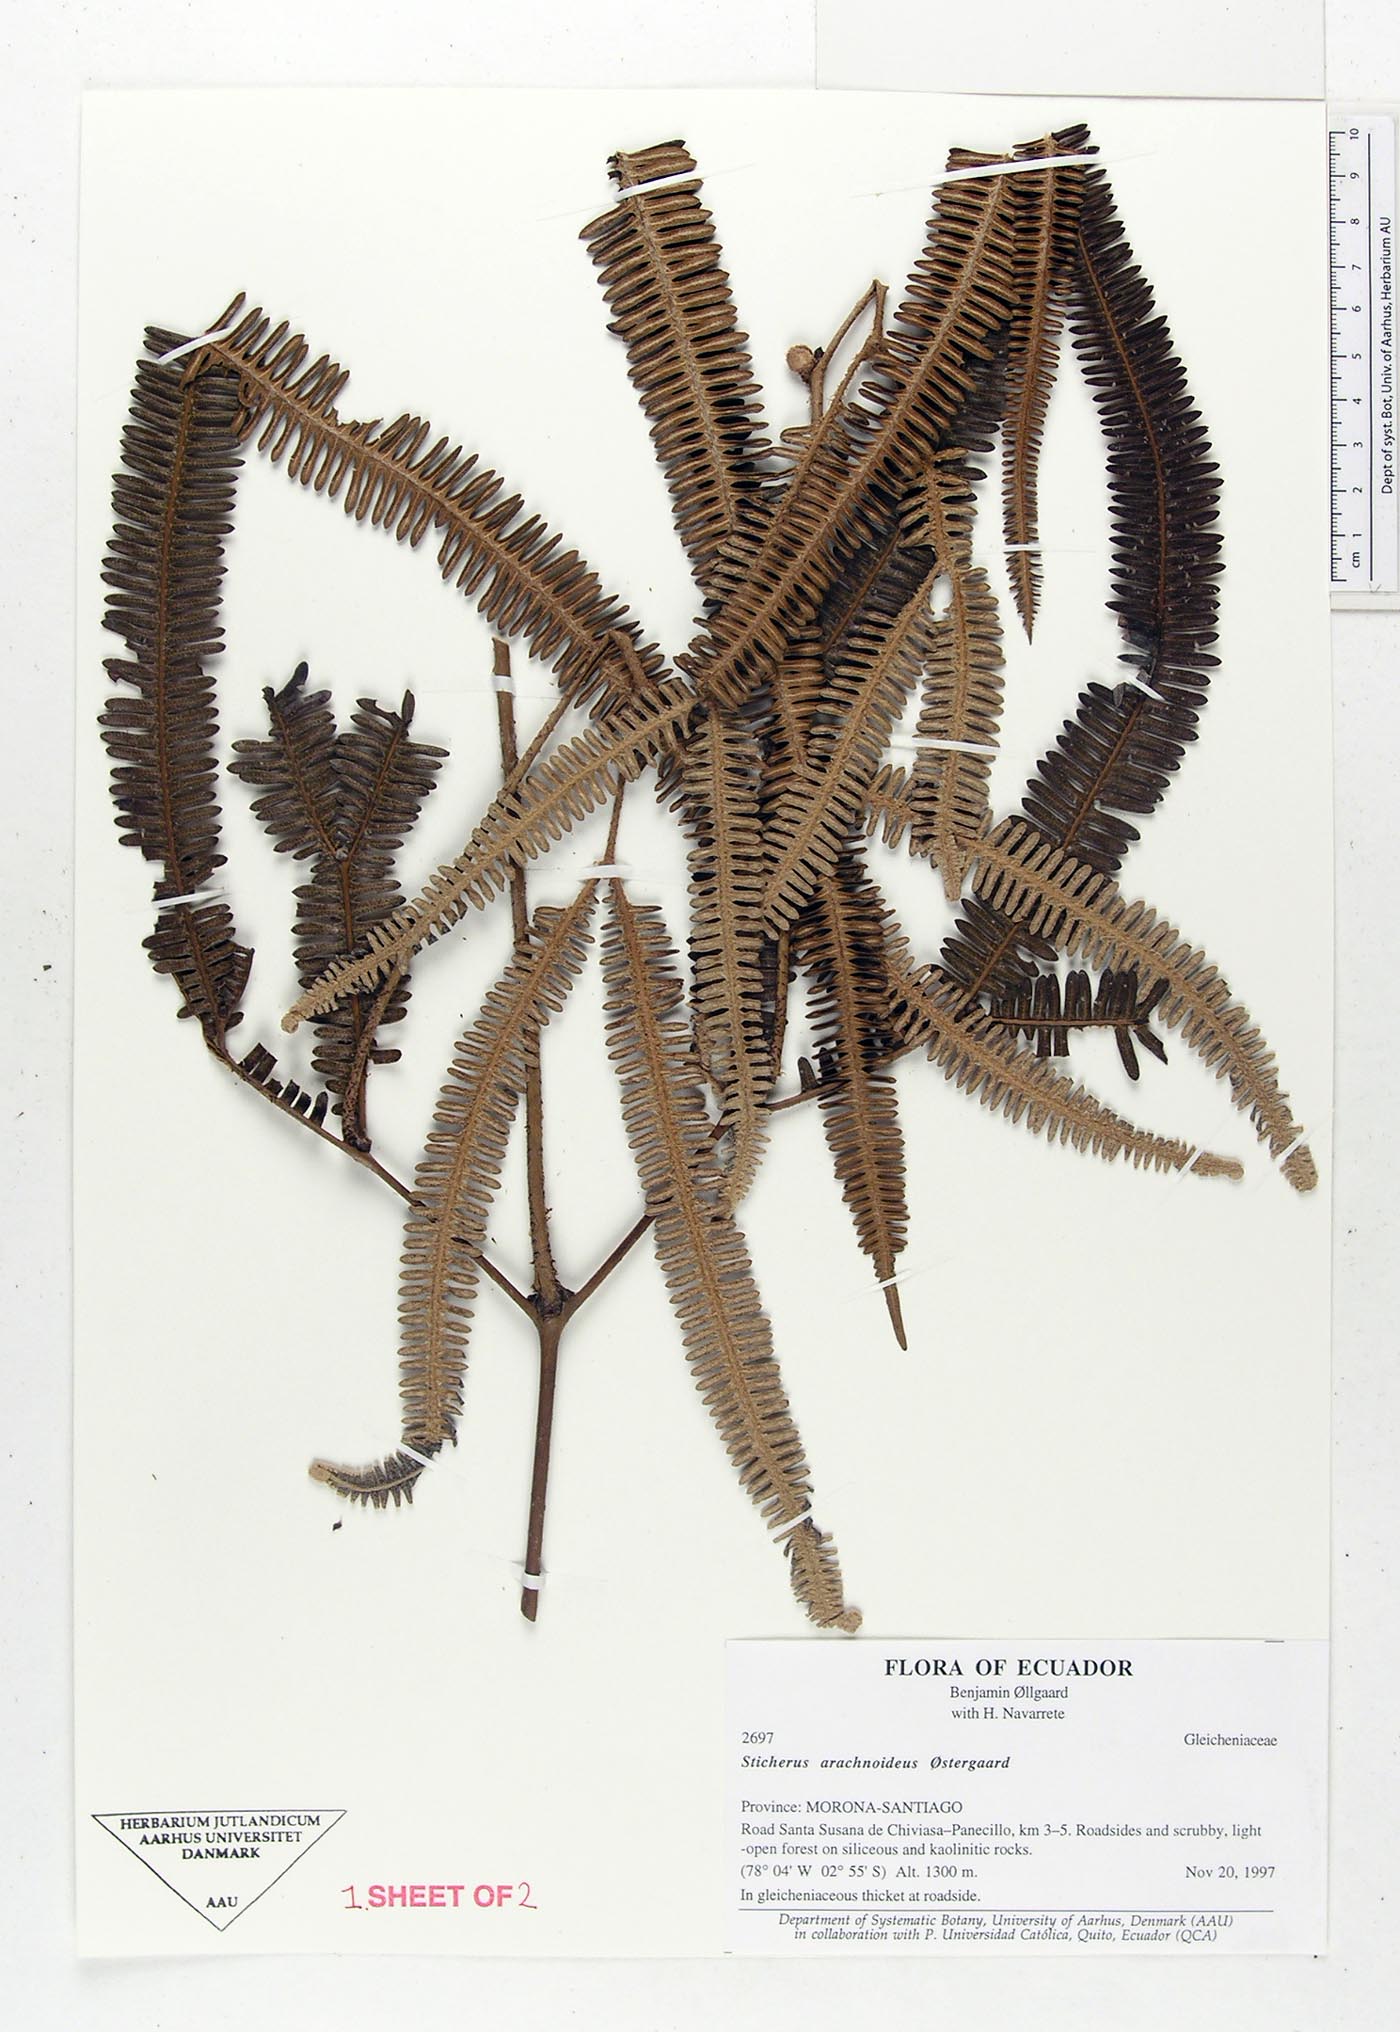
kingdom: Plantae
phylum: Tracheophyta
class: Polypodiopsida
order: Gleicheniales
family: Gleicheniaceae
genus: Sticherus
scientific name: Sticherus arachnoideus
